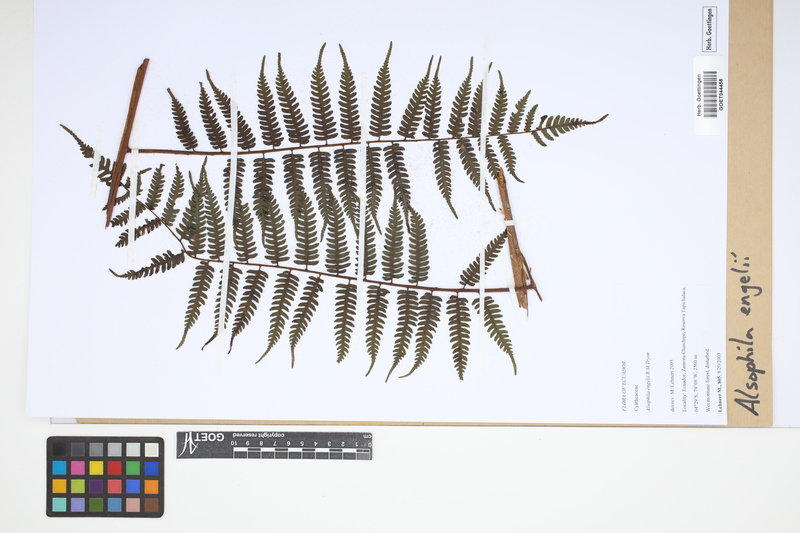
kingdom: Plantae
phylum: Tracheophyta
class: Polypodiopsida
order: Cyatheales
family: Cyatheaceae
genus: Alsophila
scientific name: Alsophila engelii
